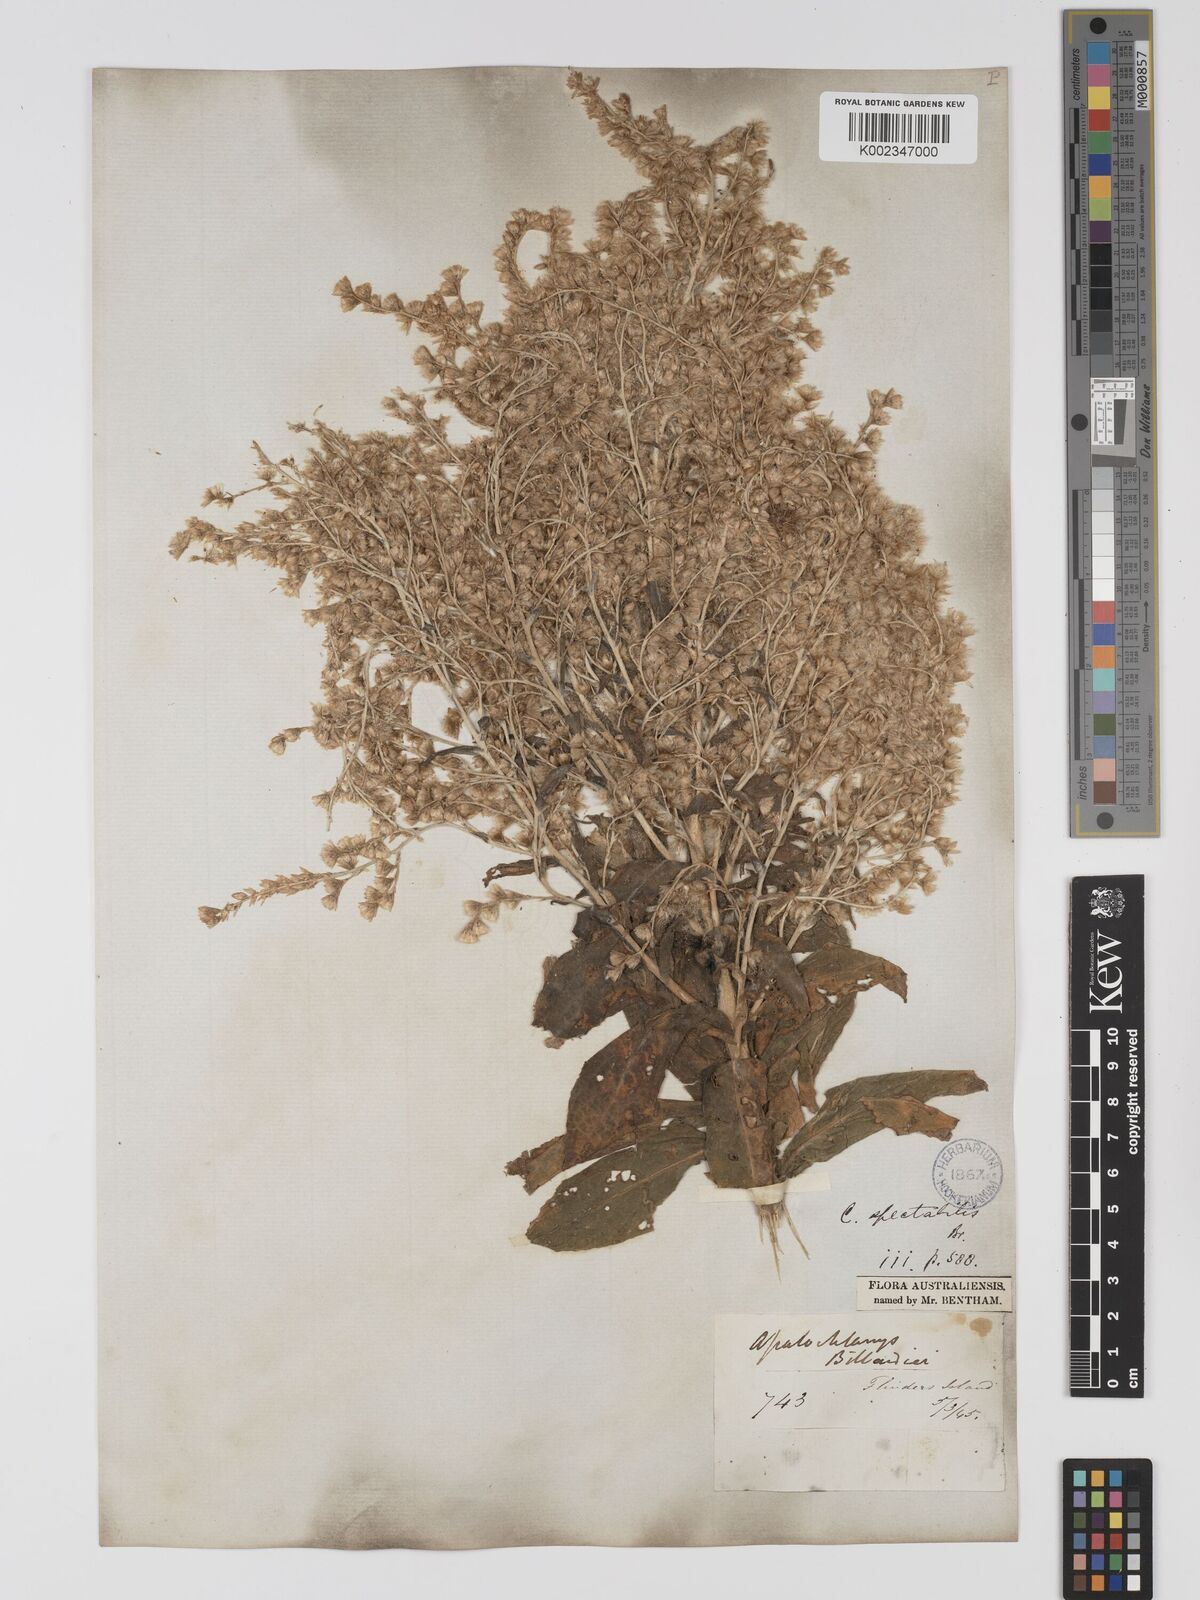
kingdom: Plantae
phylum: Tracheophyta
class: Magnoliopsida
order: Asterales
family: Asteraceae
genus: Apalochlamys
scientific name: Apalochlamys spectabilis
